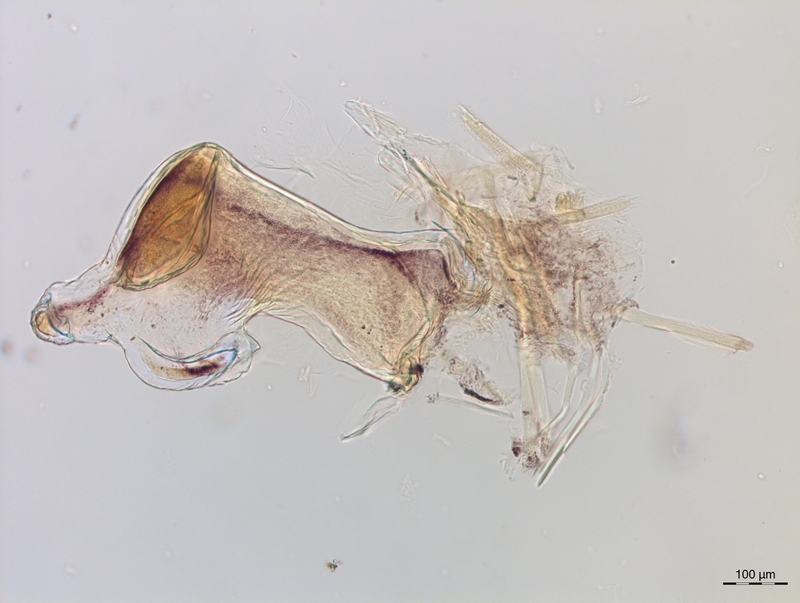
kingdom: Animalia
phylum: Arthropoda
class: Diplopoda
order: Chordeumatida
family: Craspedosomatidae
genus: Craspedosoma
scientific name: Craspedosoma slavum
